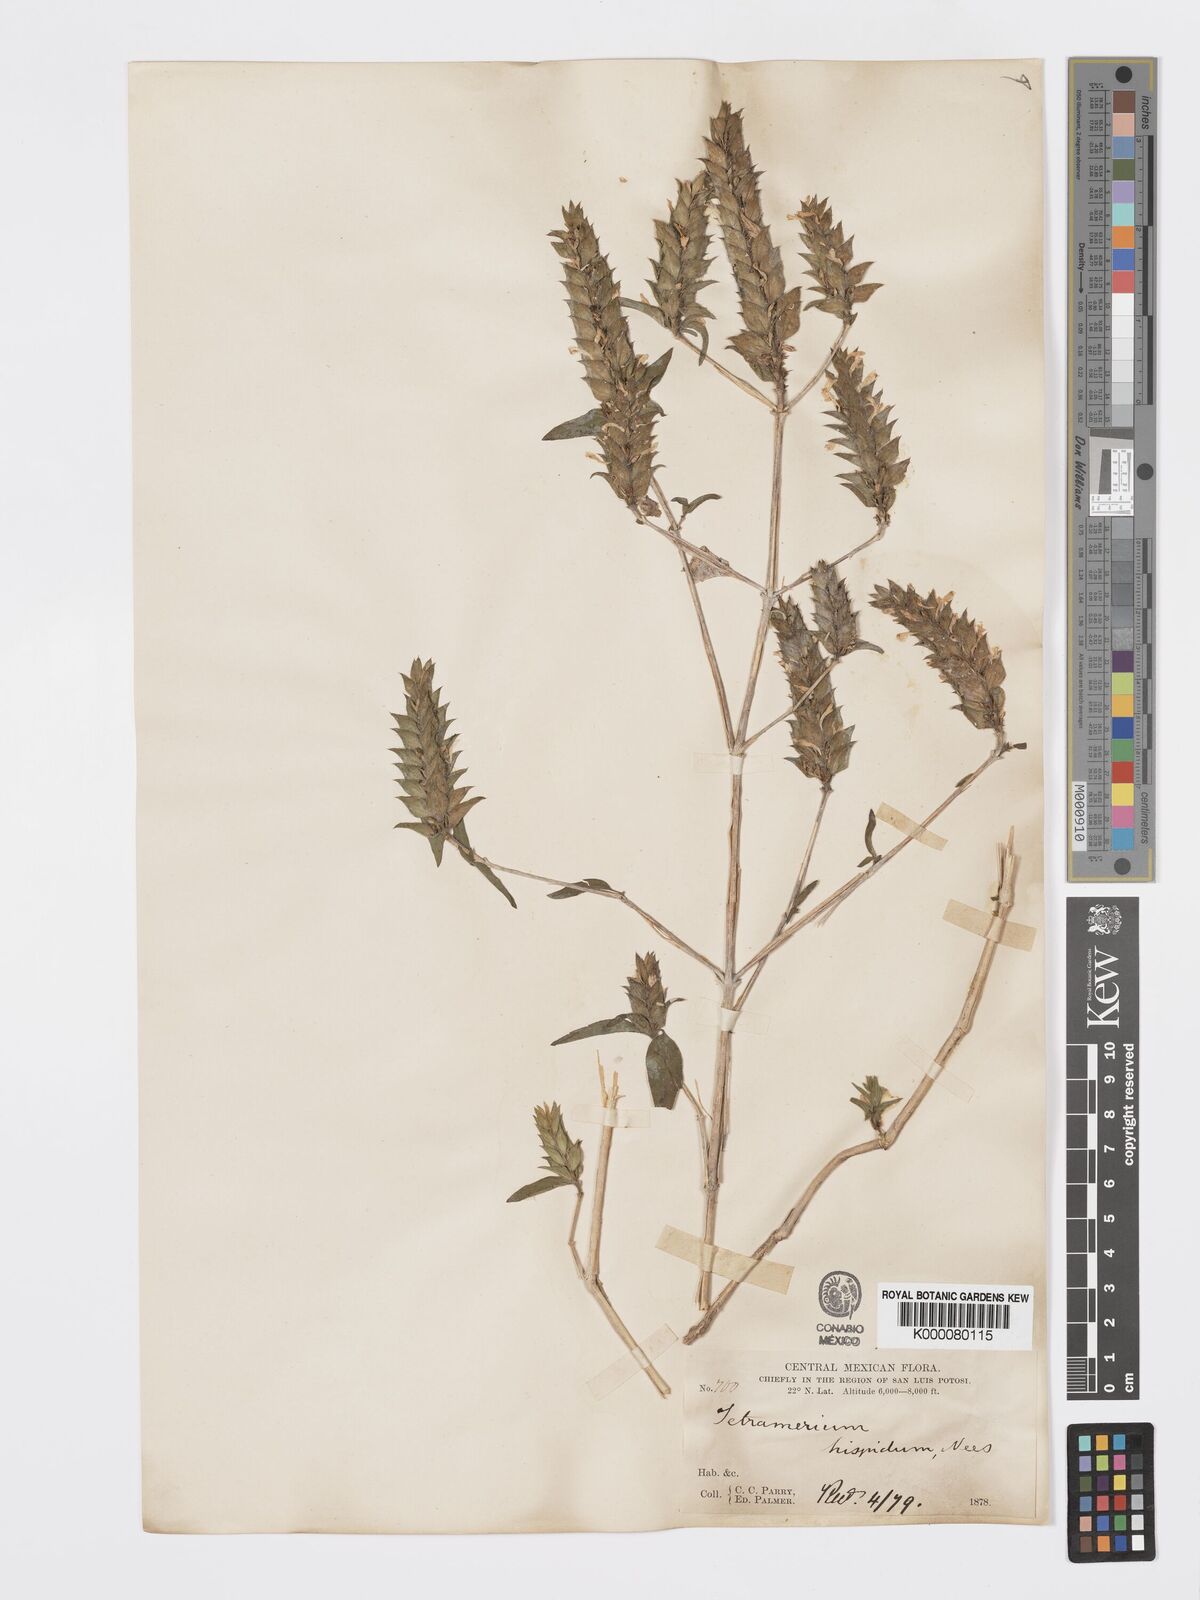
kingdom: Plantae
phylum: Tracheophyta
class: Magnoliopsida
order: Lamiales
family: Acanthaceae
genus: Tetramerium
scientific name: Tetramerium nervosum
